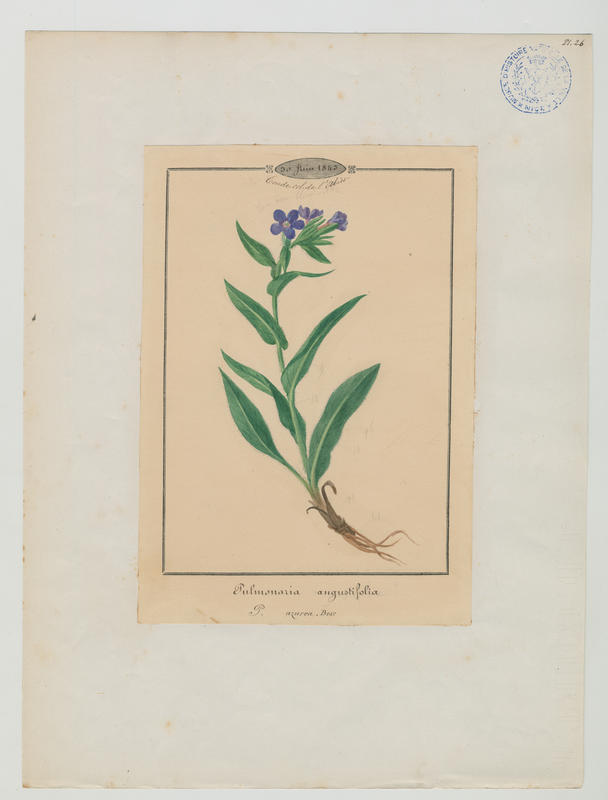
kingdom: Plantae
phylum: Tracheophyta
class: Magnoliopsida
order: Boraginales
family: Boraginaceae
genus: Pulmonaria
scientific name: Pulmonaria angustifolia
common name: Blue cowslip
